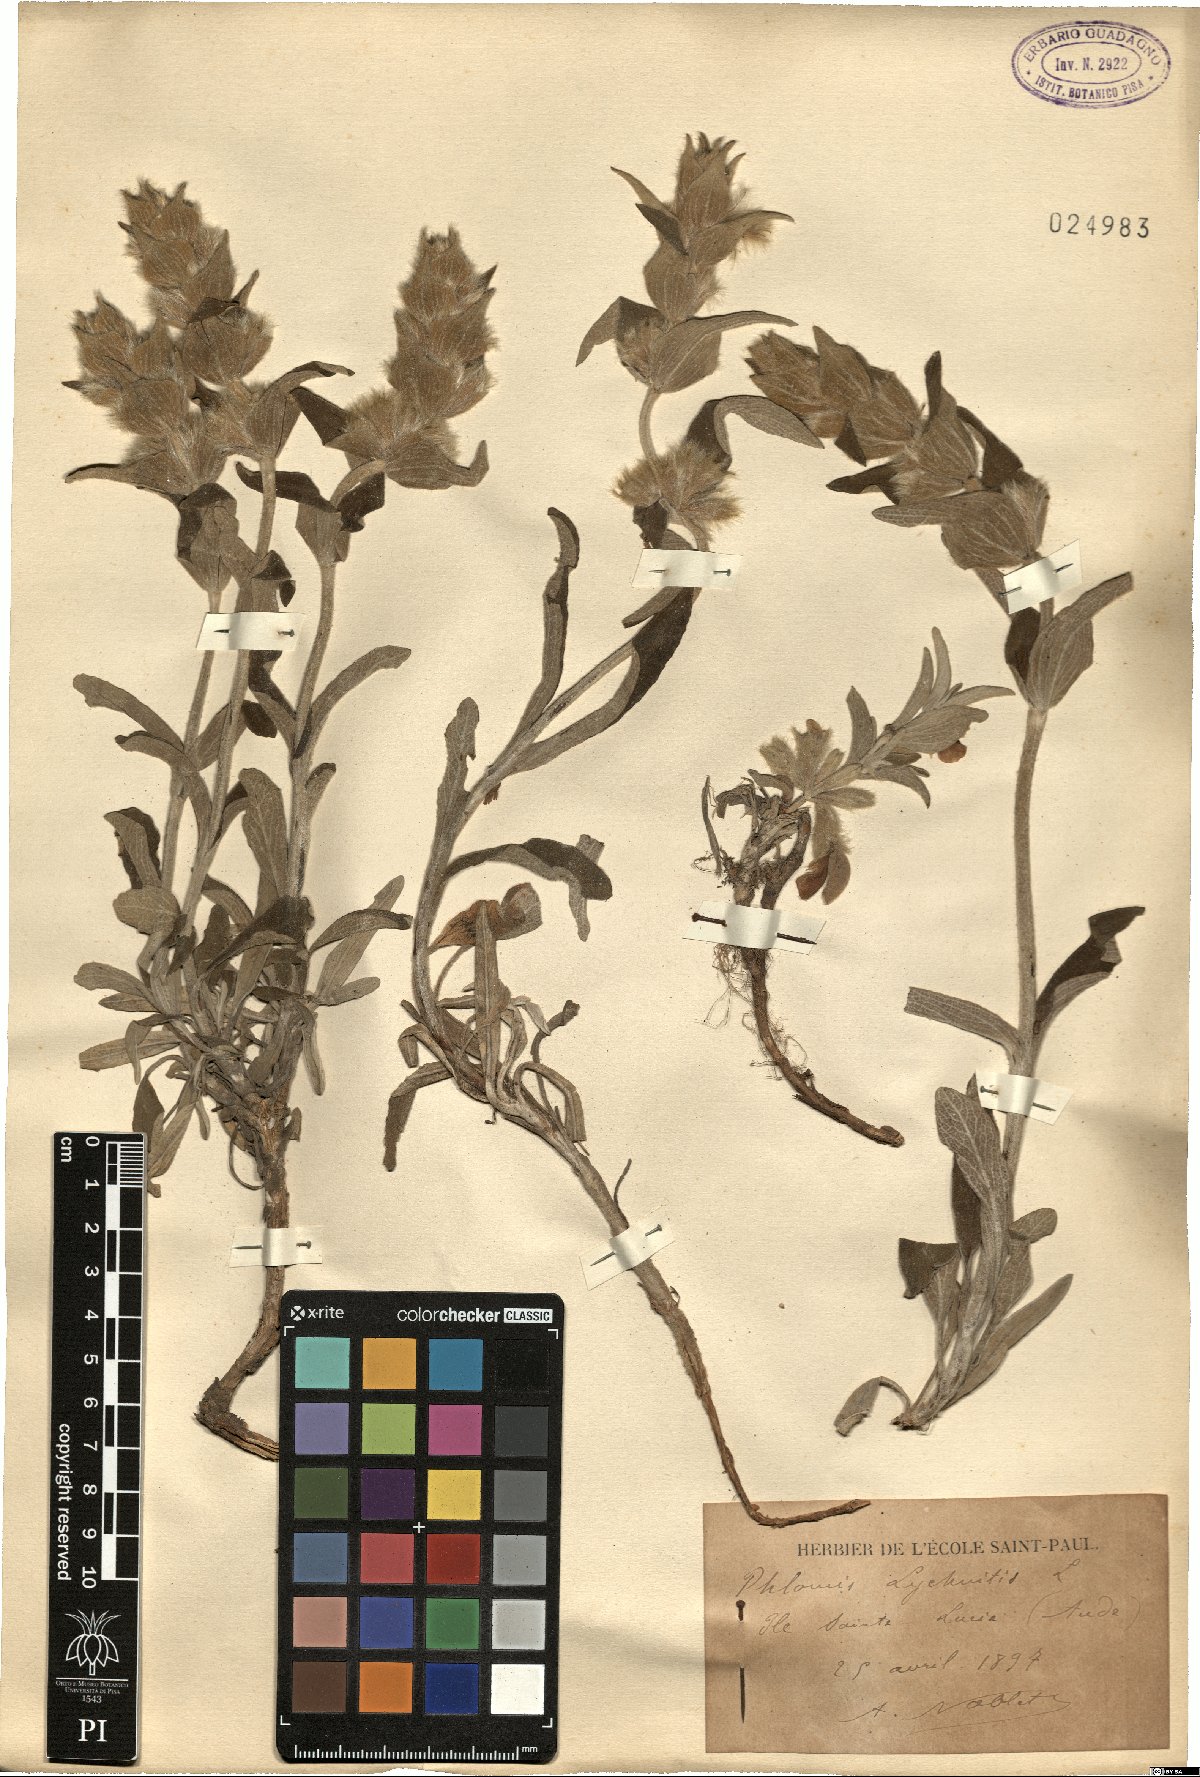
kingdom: Plantae
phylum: Tracheophyta
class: Magnoliopsida
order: Lamiales
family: Lamiaceae
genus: Phlomis
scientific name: Phlomis lychnitis
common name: Lampwickplant
